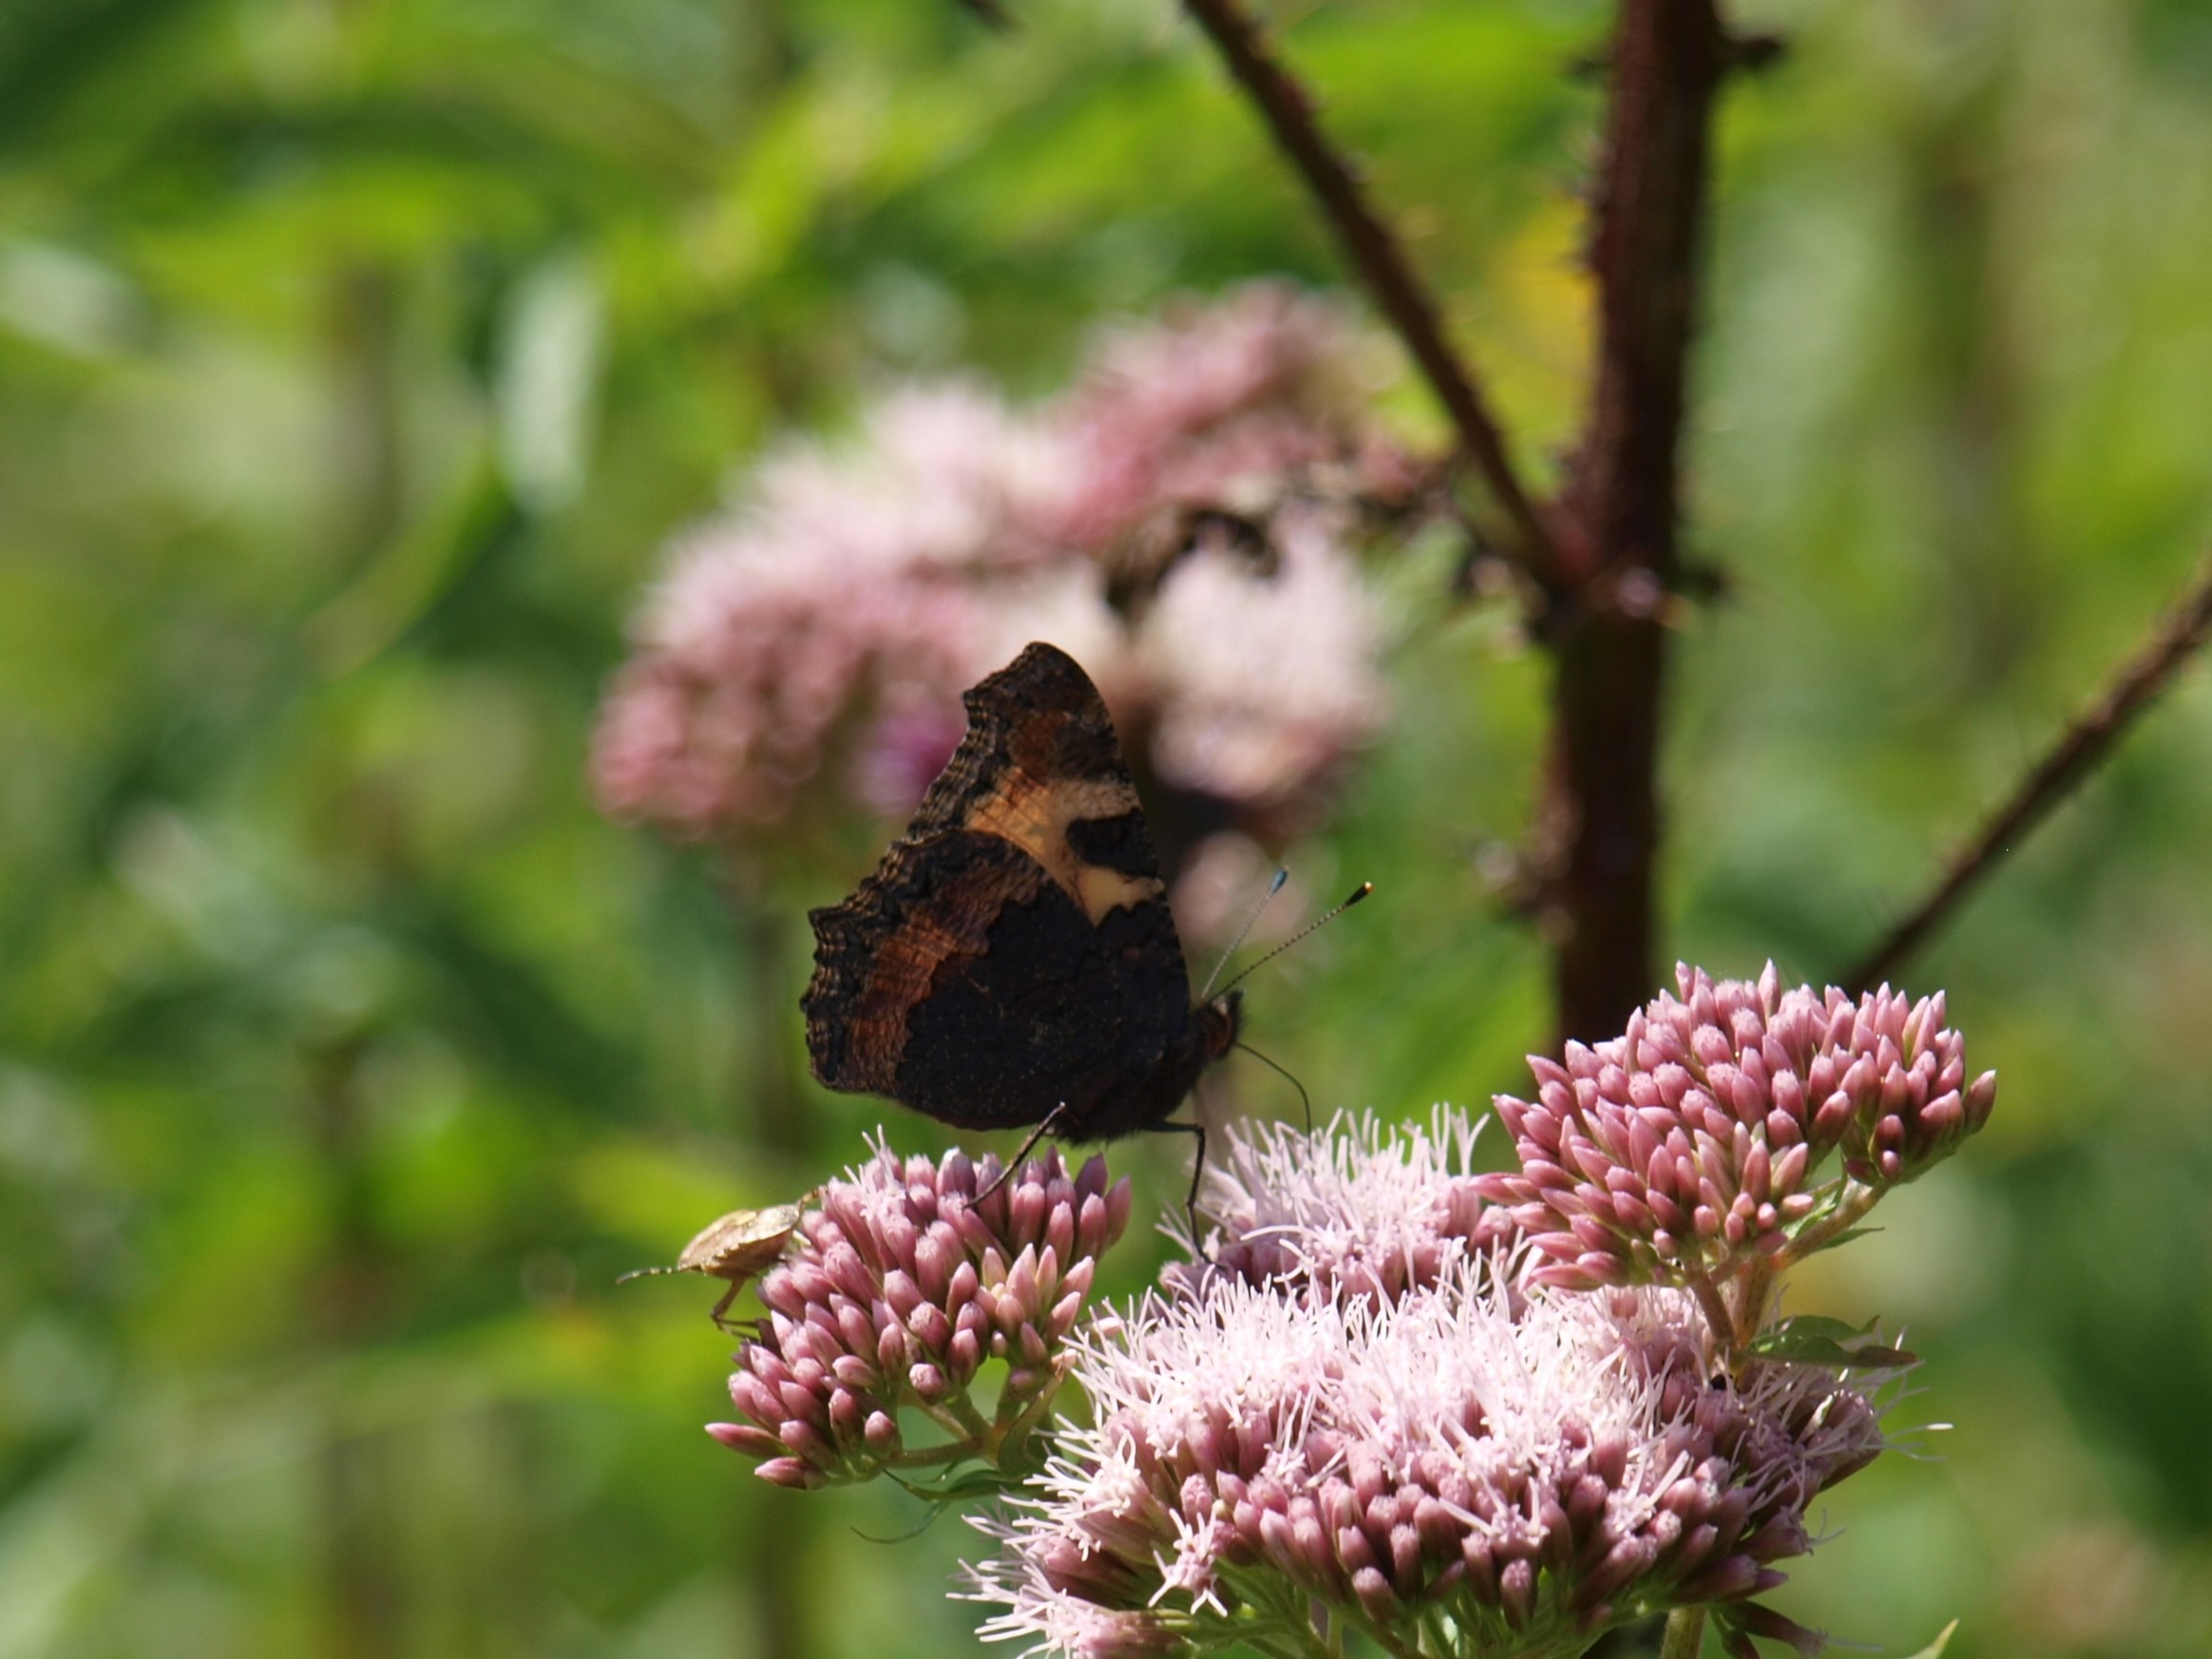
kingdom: Animalia
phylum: Arthropoda
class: Insecta
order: Lepidoptera
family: Nymphalidae
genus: Aglais
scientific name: Aglais urticae
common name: Nældens takvinge
